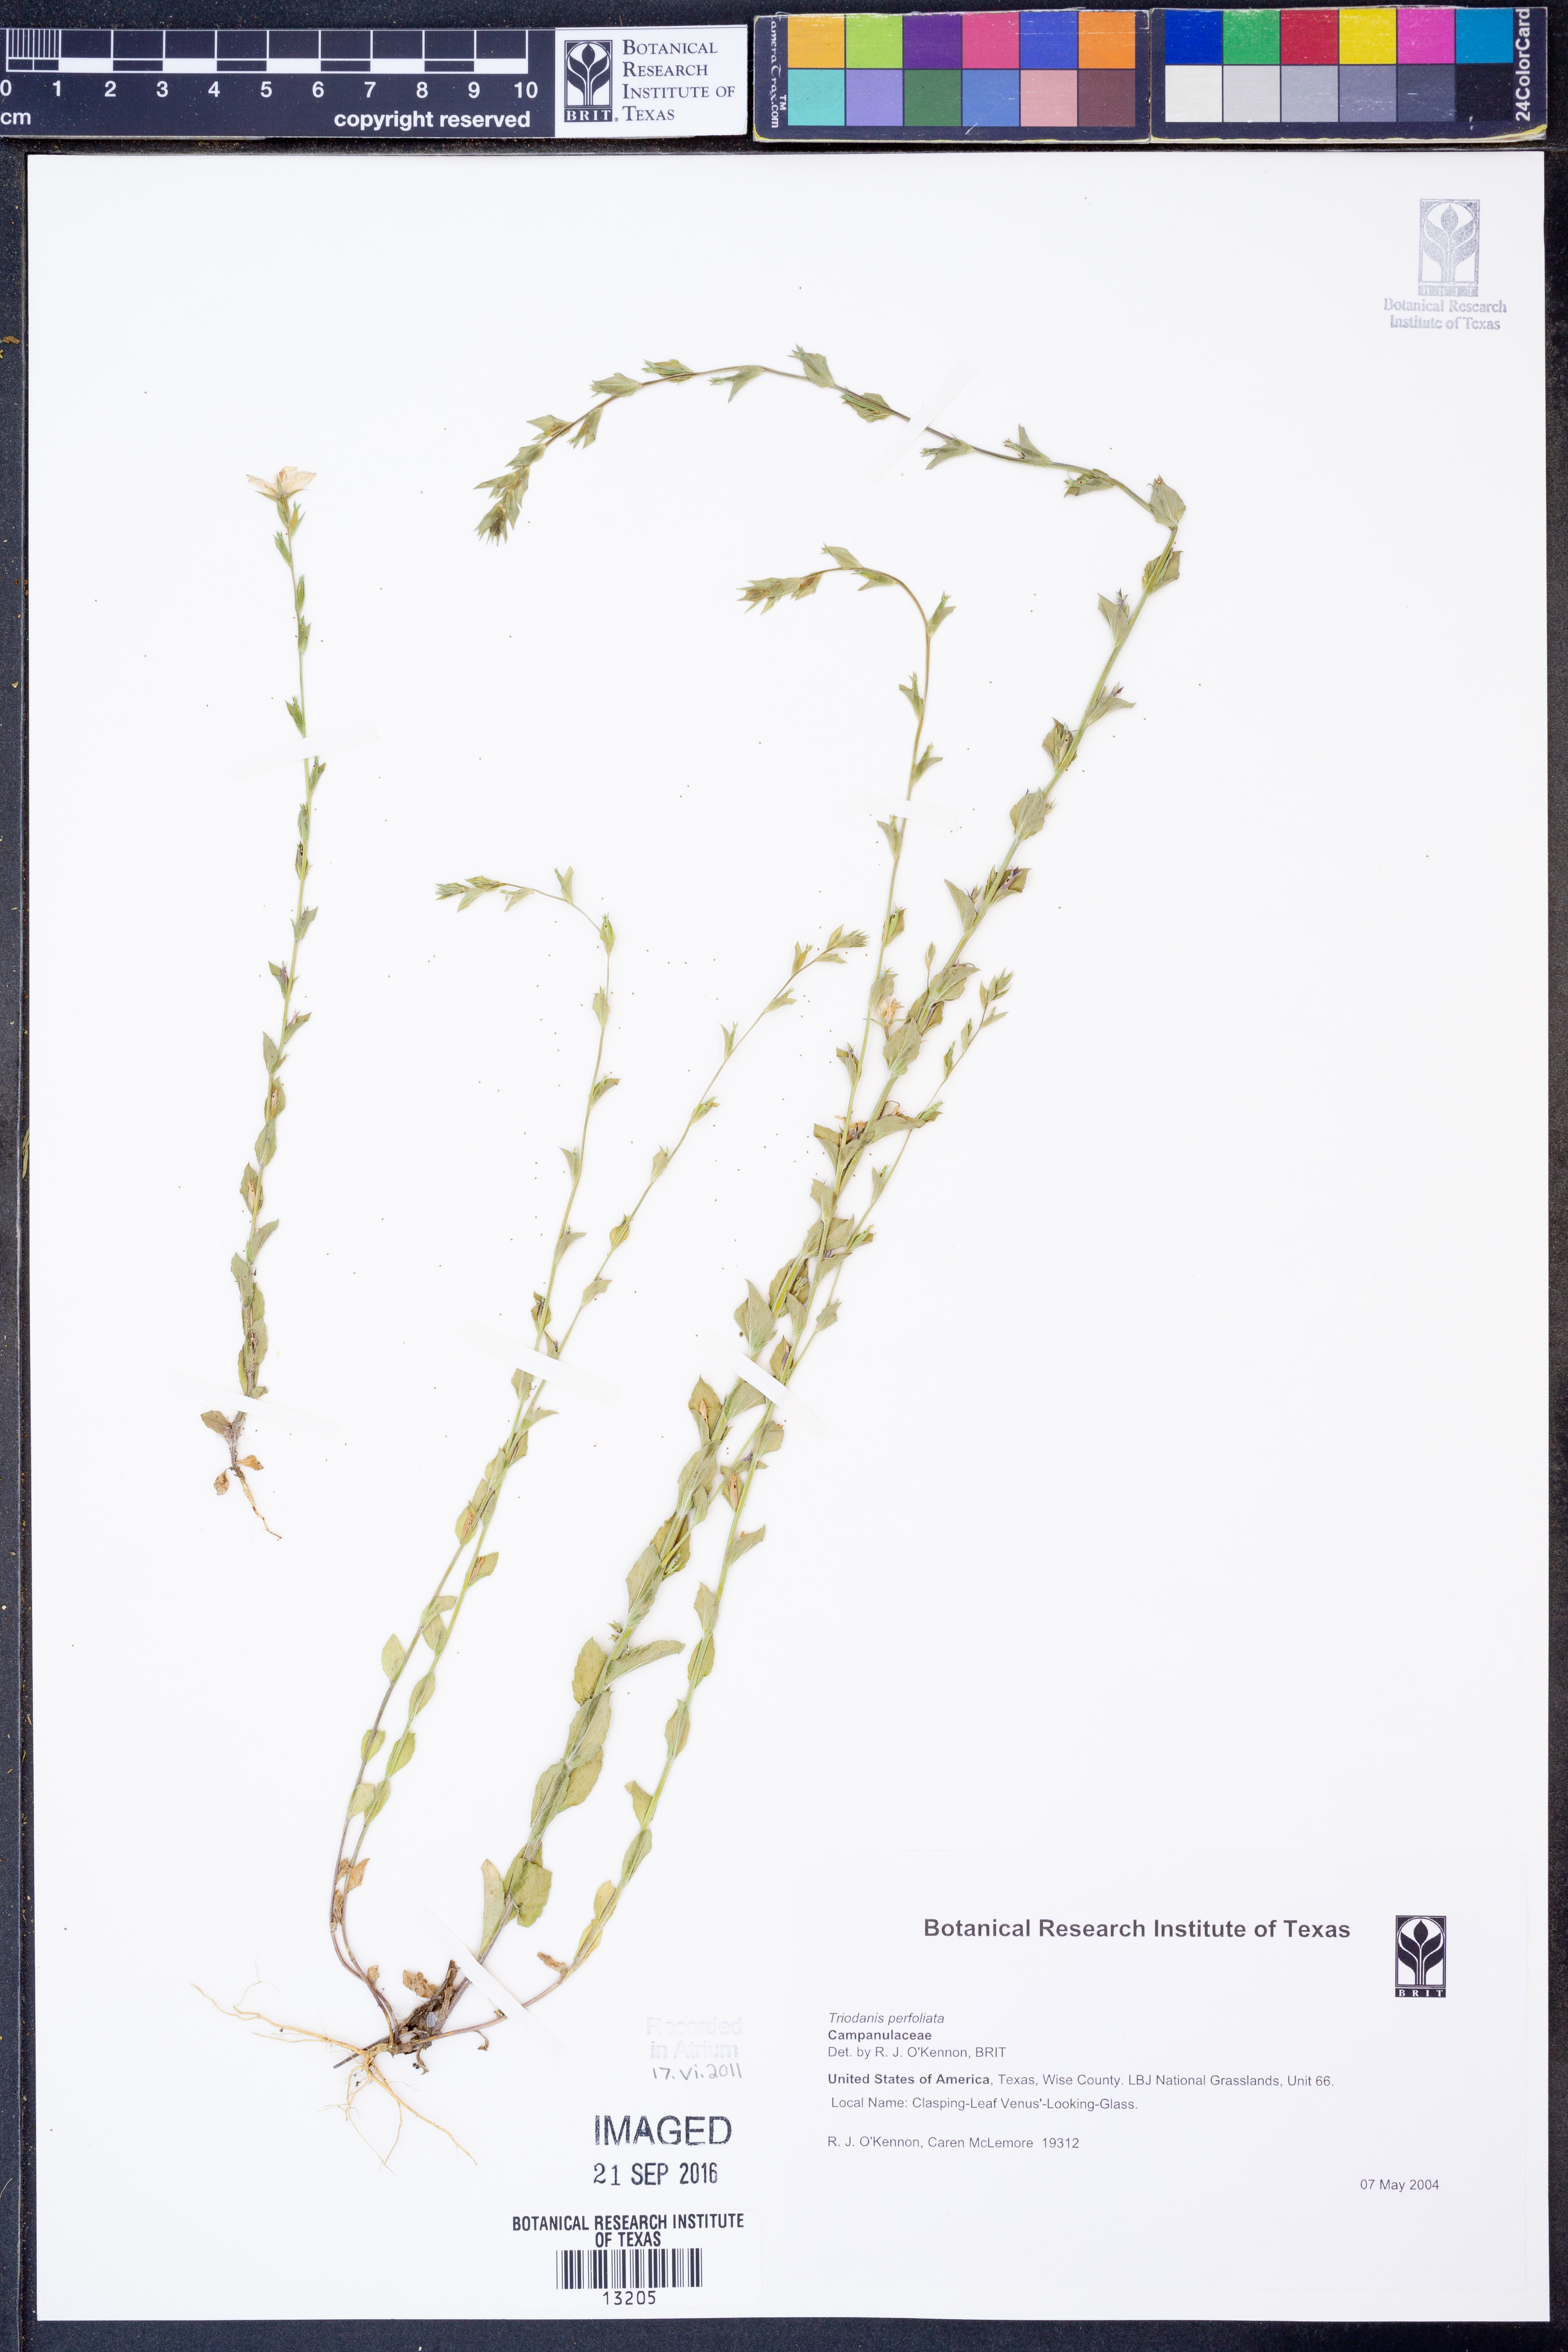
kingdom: Plantae
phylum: Tracheophyta
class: Magnoliopsida
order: Asterales
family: Campanulaceae
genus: Triodanis
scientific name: Triodanis perfoliata
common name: Clasping venus' looking-glass
